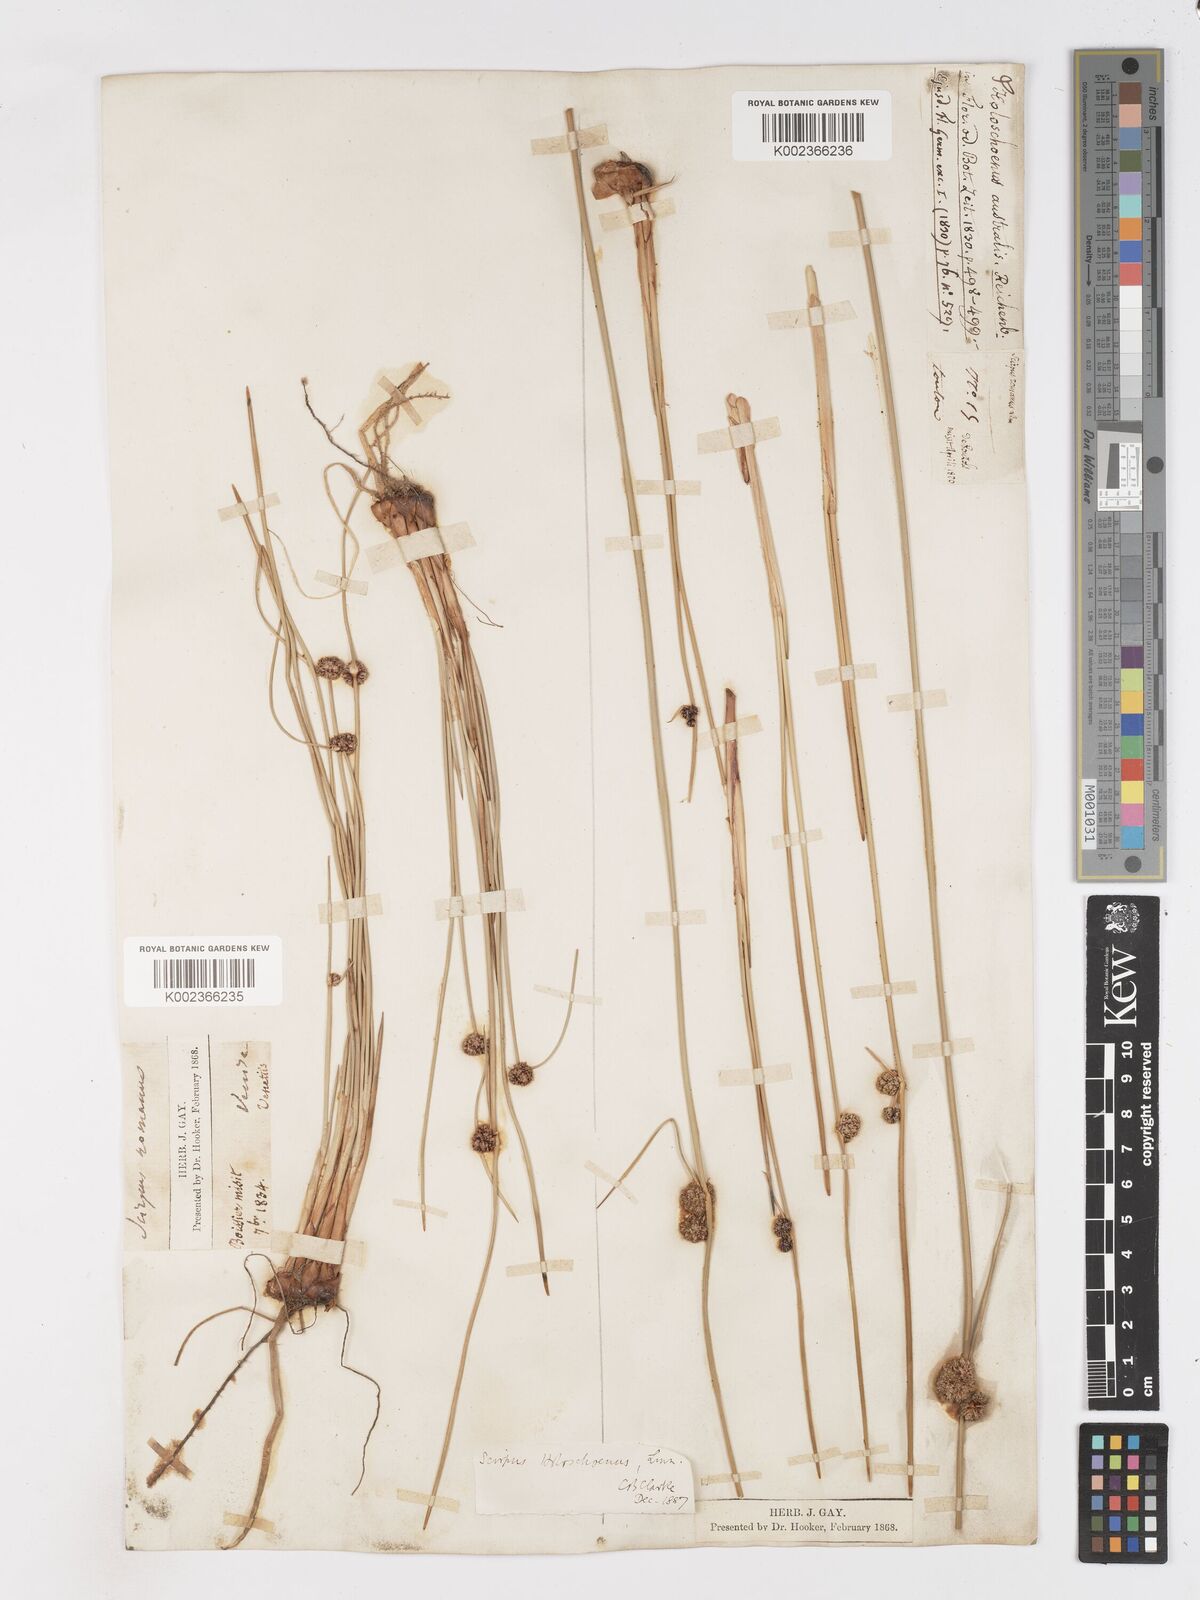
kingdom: Plantae
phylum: Tracheophyta
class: Liliopsida
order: Poales
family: Cyperaceae
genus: Scirpoides
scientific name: Scirpoides holoschoenus
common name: Round-headed club-rush
